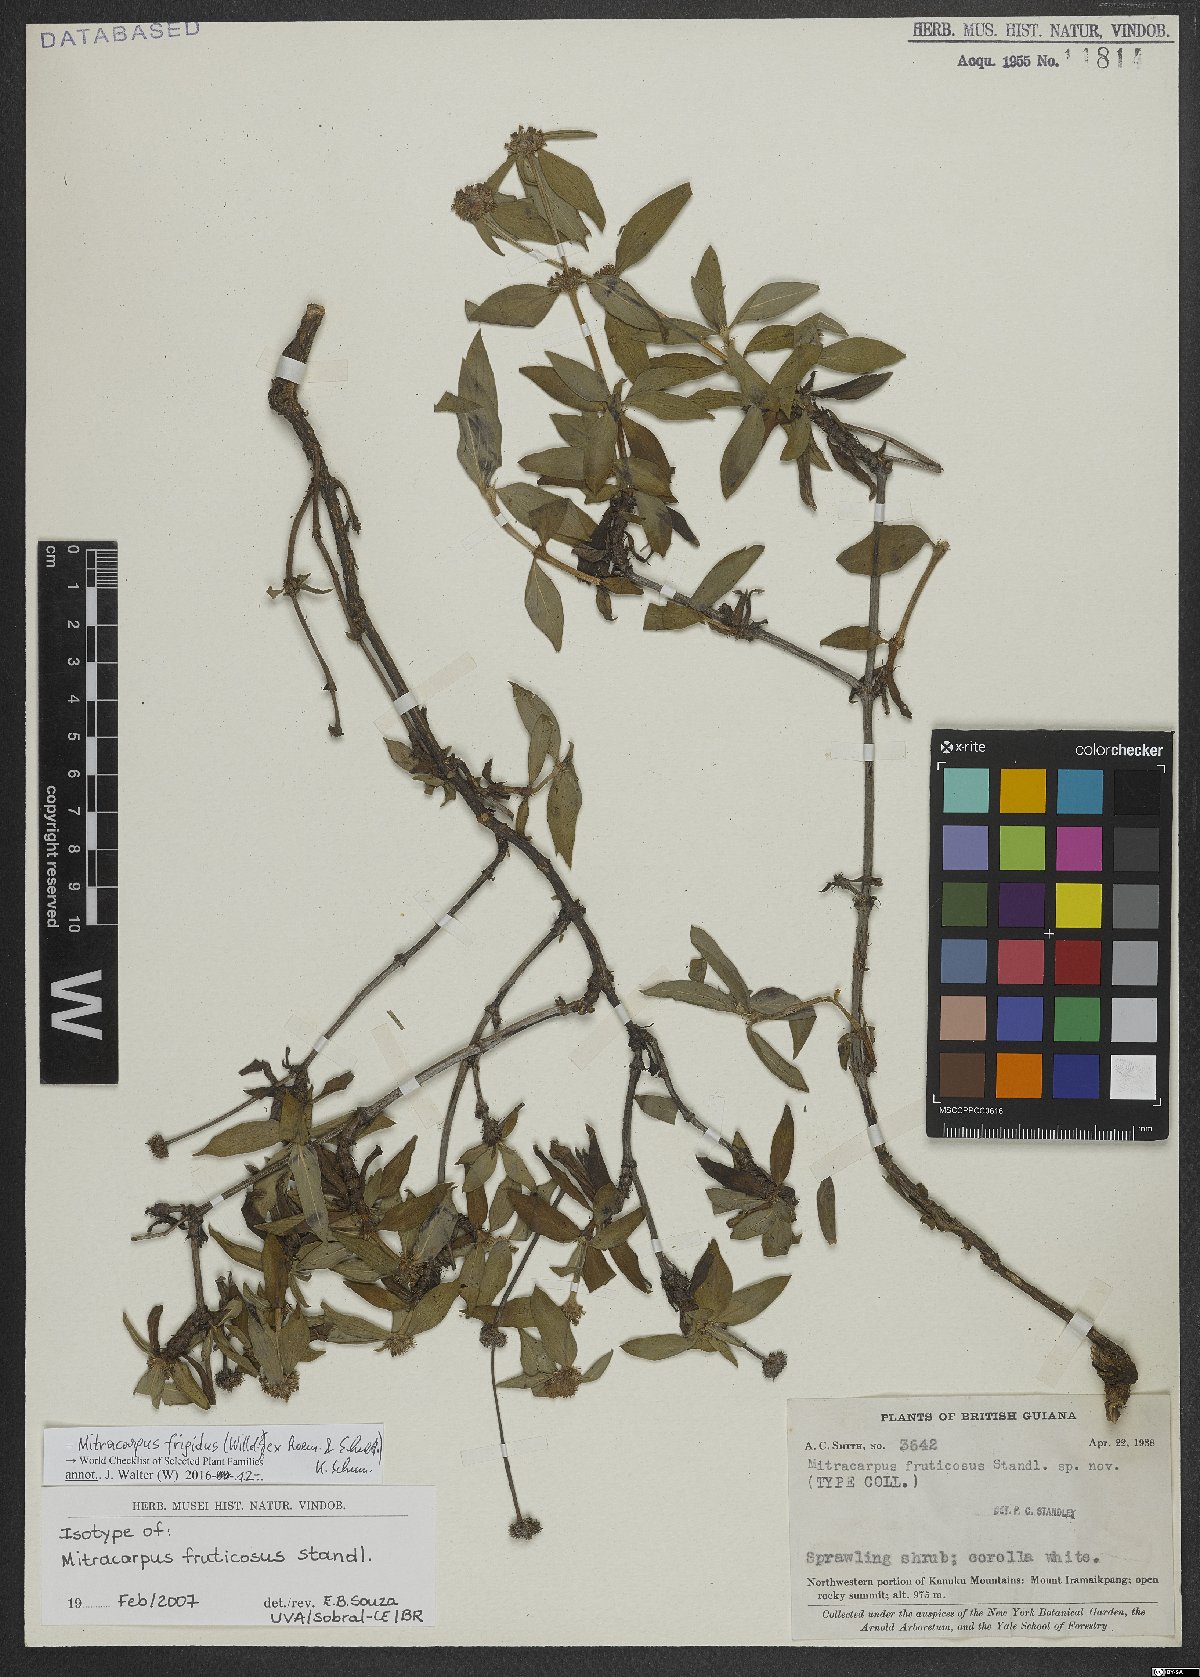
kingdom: Plantae
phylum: Tracheophyta
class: Magnoliopsida
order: Gentianales
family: Rubiaceae
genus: Mitracarpus
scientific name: Mitracarpus frigidus
